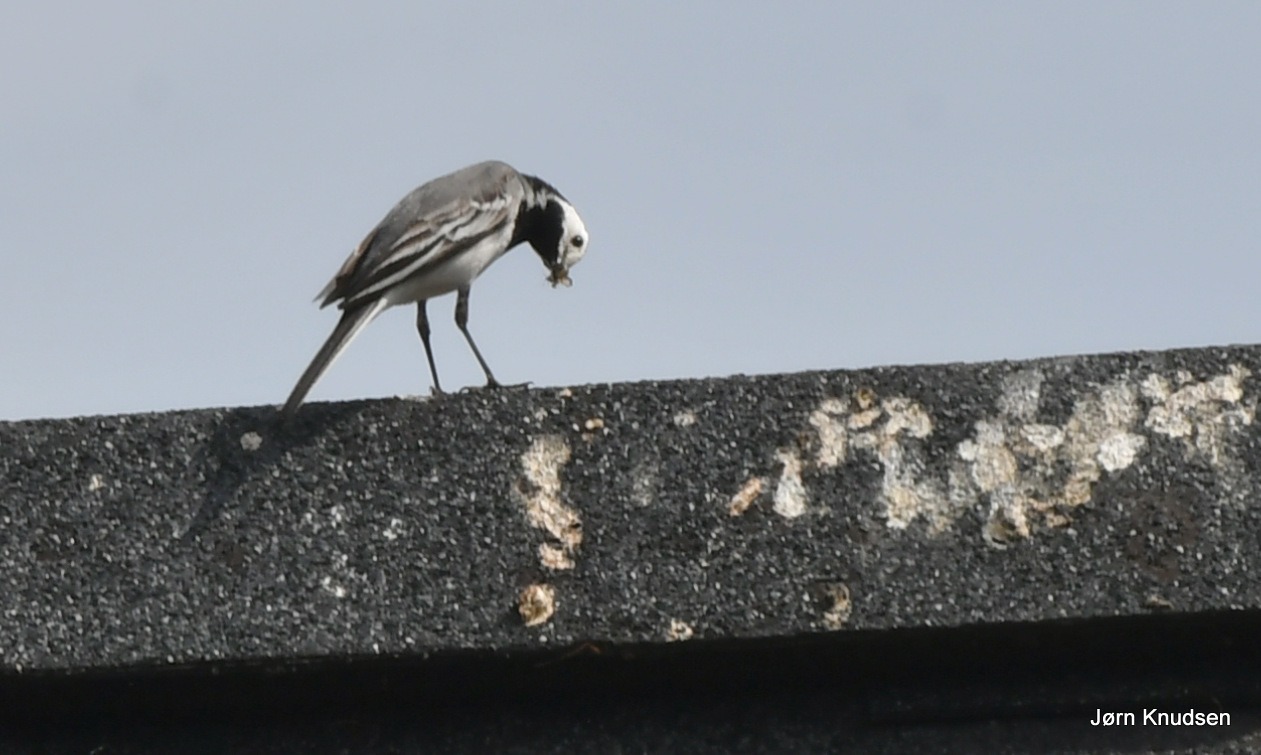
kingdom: Animalia
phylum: Chordata
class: Aves
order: Passeriformes
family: Motacillidae
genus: Motacilla
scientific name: Motacilla alba
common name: Hvid vipstjert
